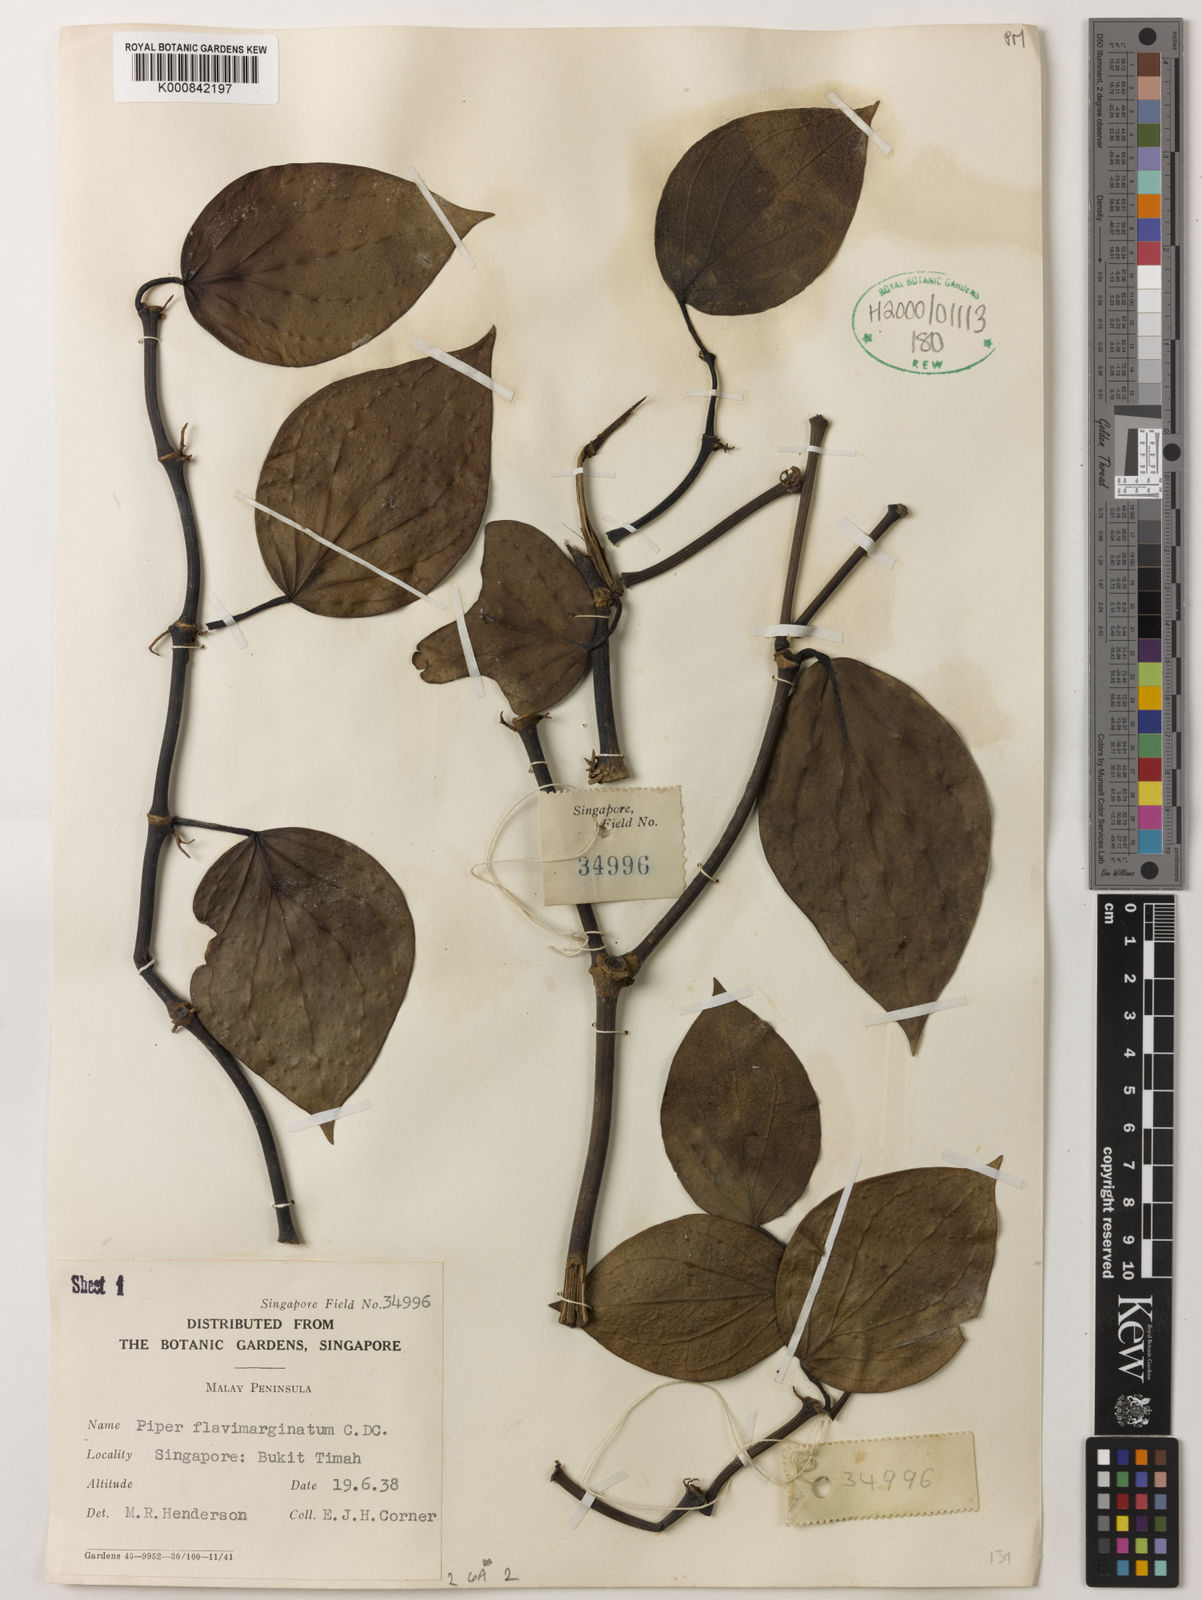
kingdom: Plantae
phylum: Tracheophyta
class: Magnoliopsida
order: Piperales
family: Piperaceae
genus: Piper
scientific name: Piper flavimarginatum
